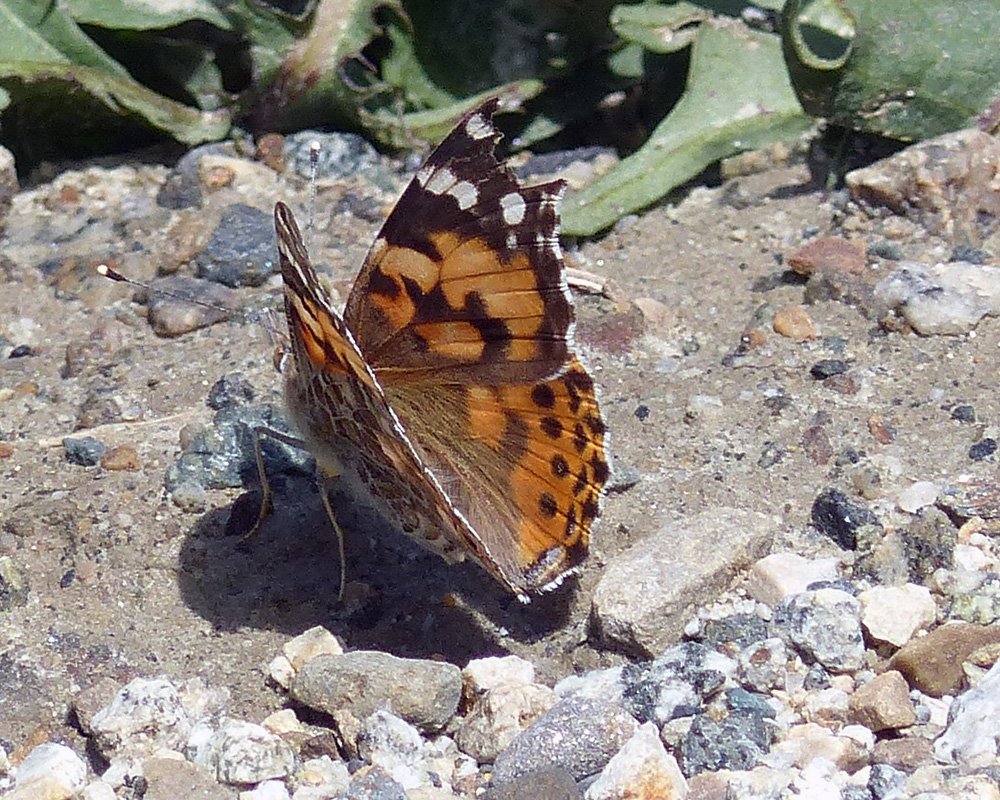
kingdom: Animalia
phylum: Arthropoda
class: Insecta
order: Lepidoptera
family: Nymphalidae
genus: Vanessa
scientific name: Vanessa cardui
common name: Painted Lady
